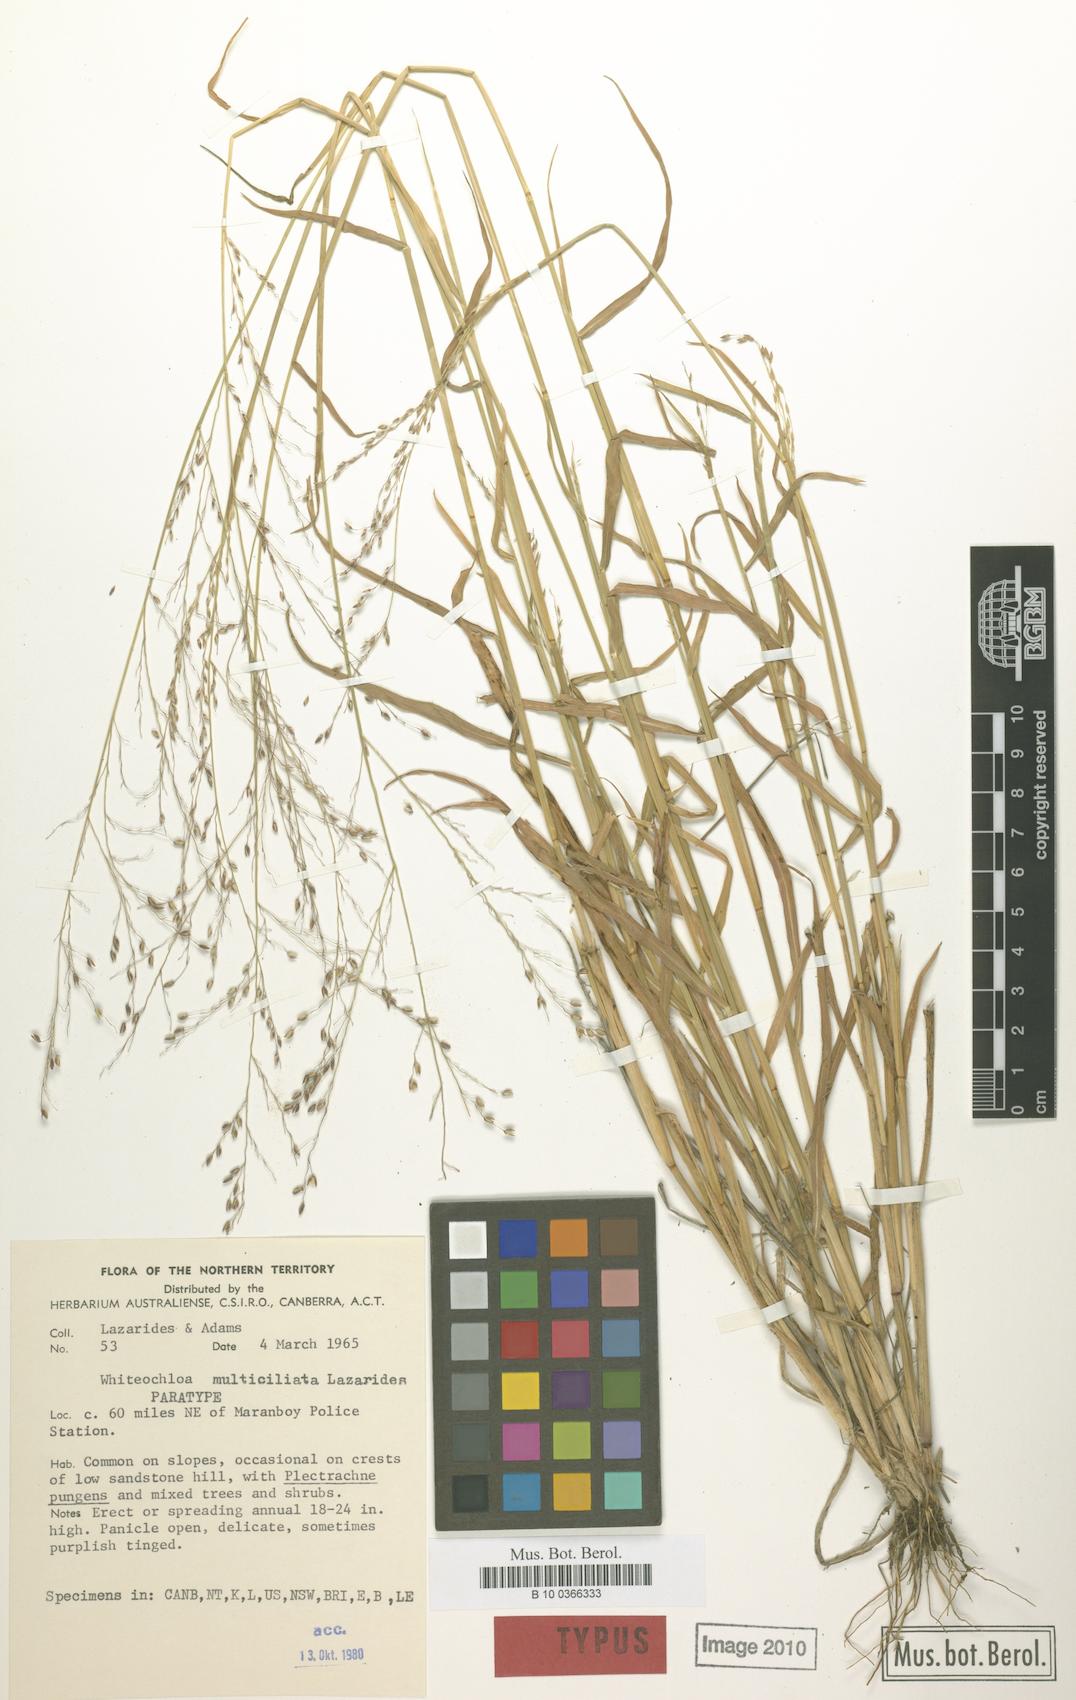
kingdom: Plantae
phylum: Tracheophyta
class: Liliopsida
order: Poales
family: Poaceae
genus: Whiteochloa
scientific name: Whiteochloa multiciliata
